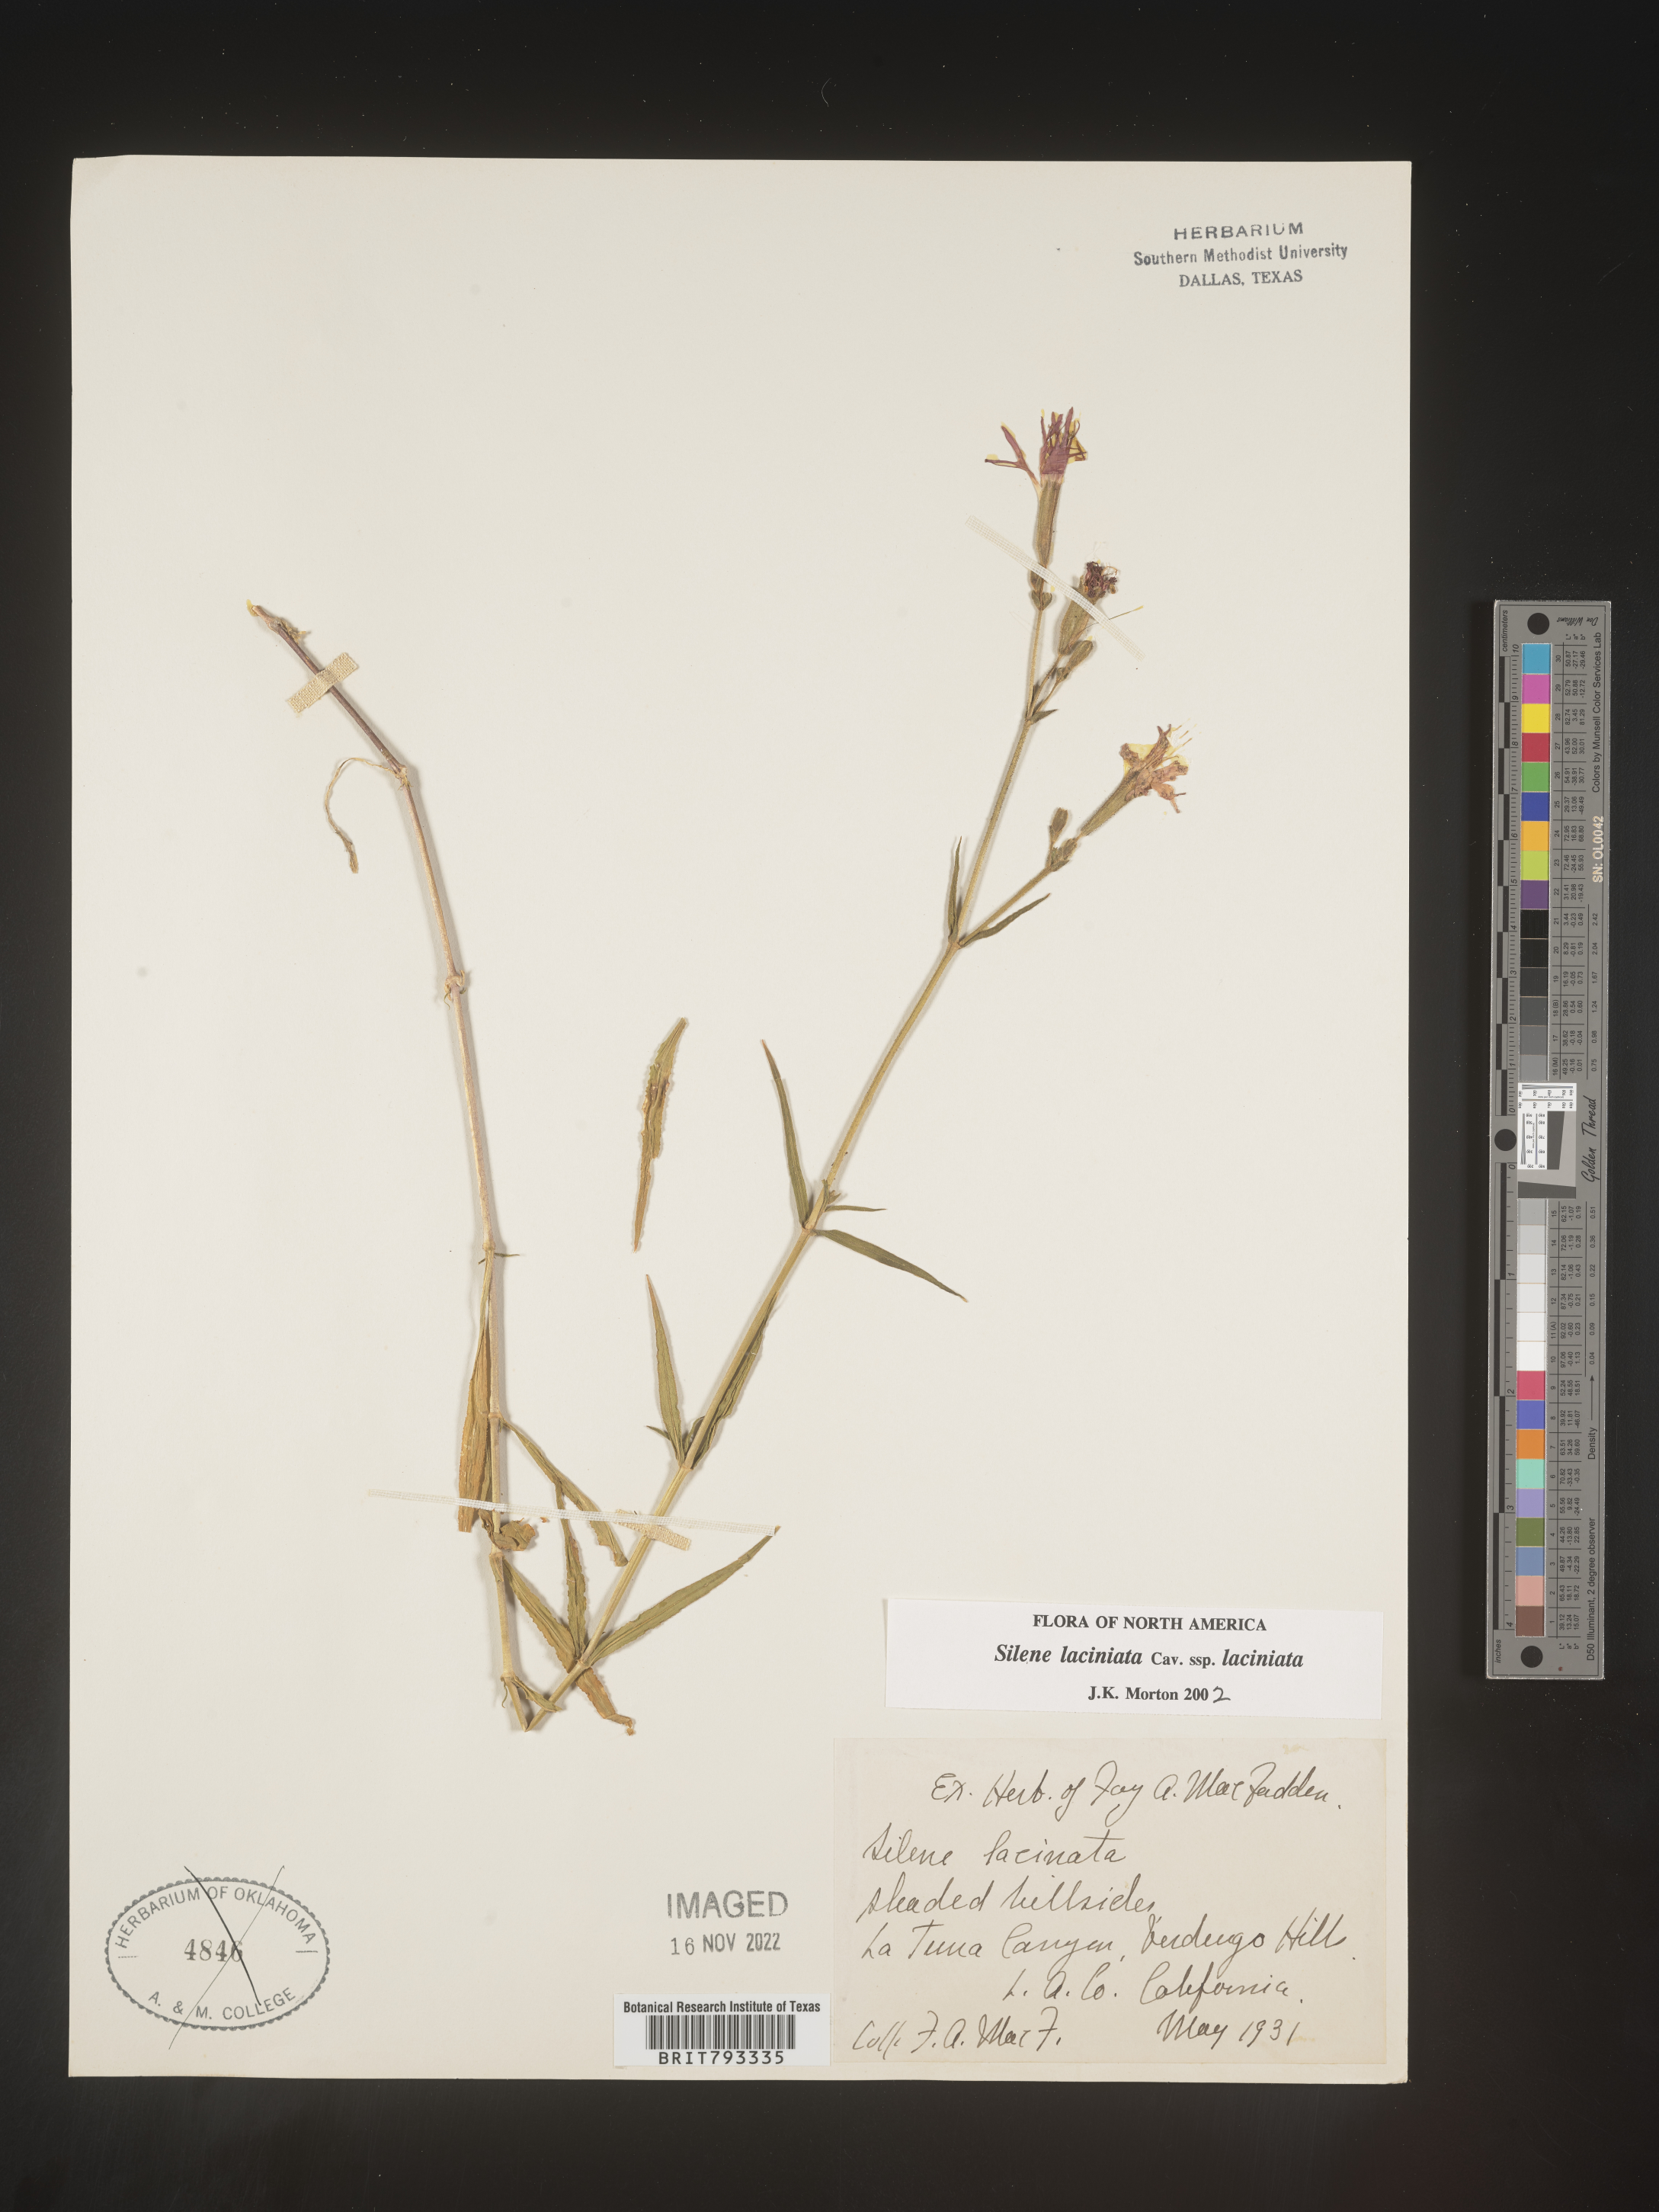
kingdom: Plantae
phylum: Tracheophyta
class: Magnoliopsida
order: Caryophyllales
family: Caryophyllaceae
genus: Silene
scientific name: Silene laciniata
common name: Indian-pink
